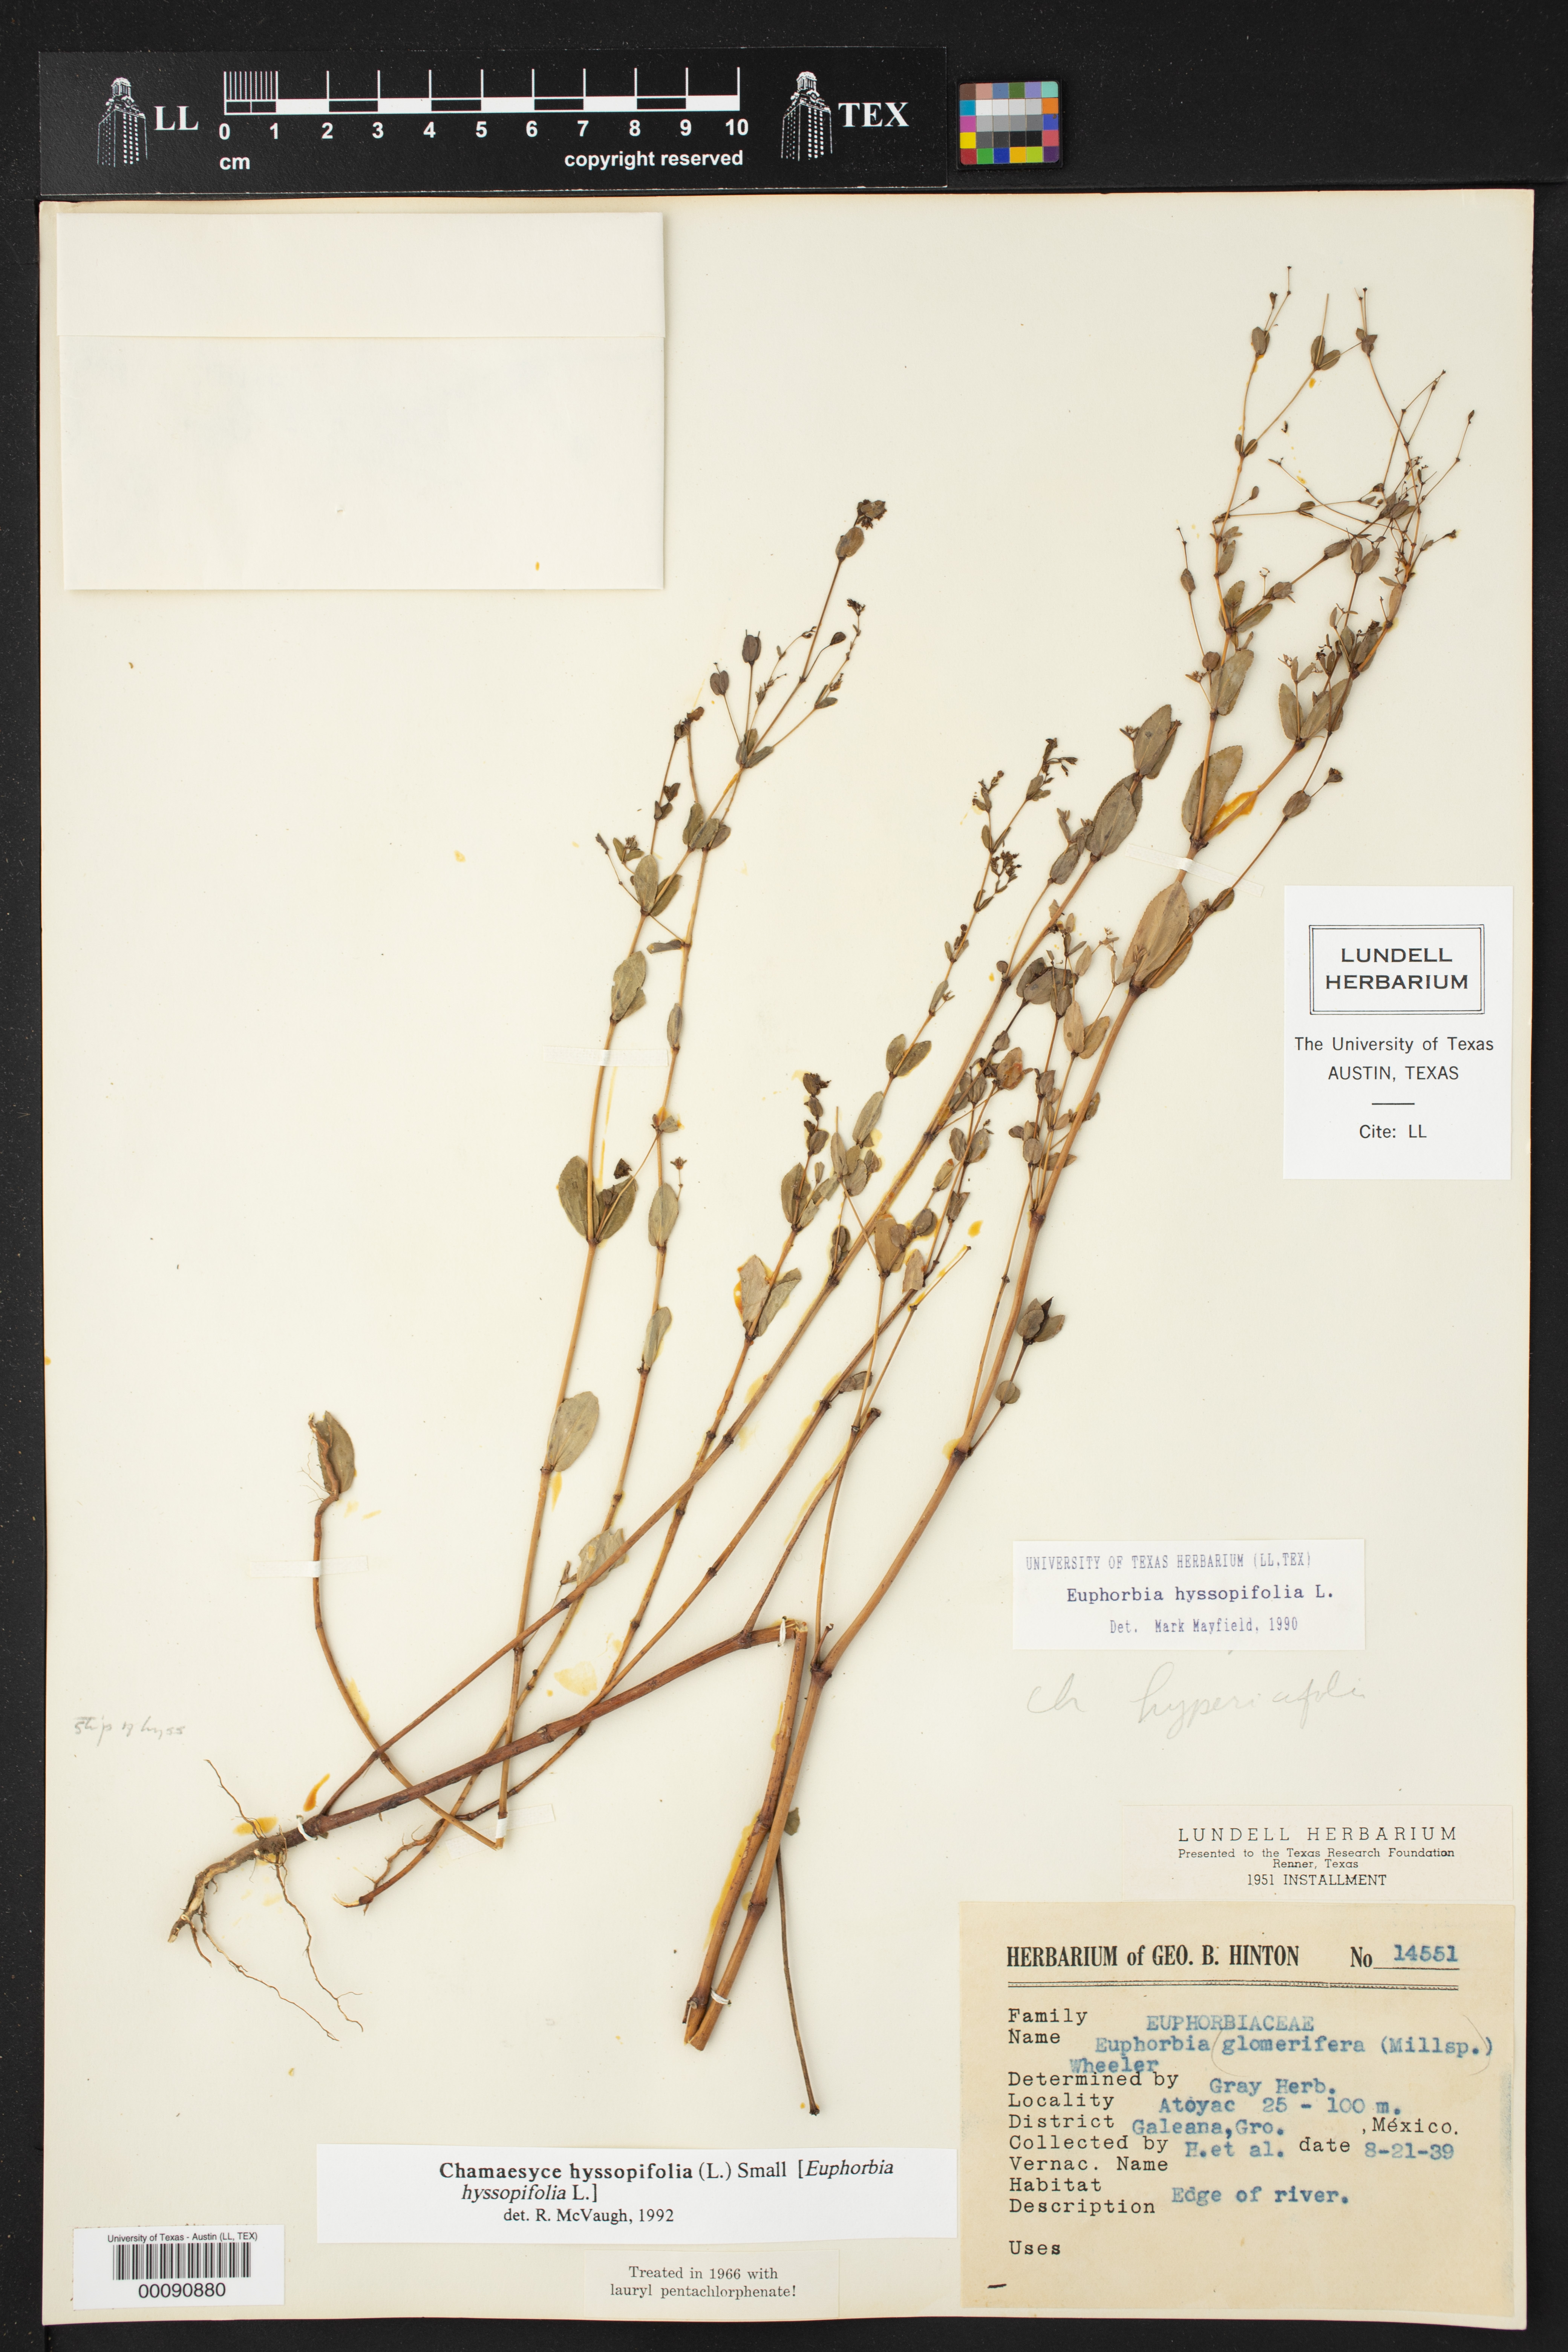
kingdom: Plantae
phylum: Tracheophyta
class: Magnoliopsida
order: Malpighiales
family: Euphorbiaceae
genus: Euphorbia
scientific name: Euphorbia hyssopifolia
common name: Hyssopleaf sandmat
